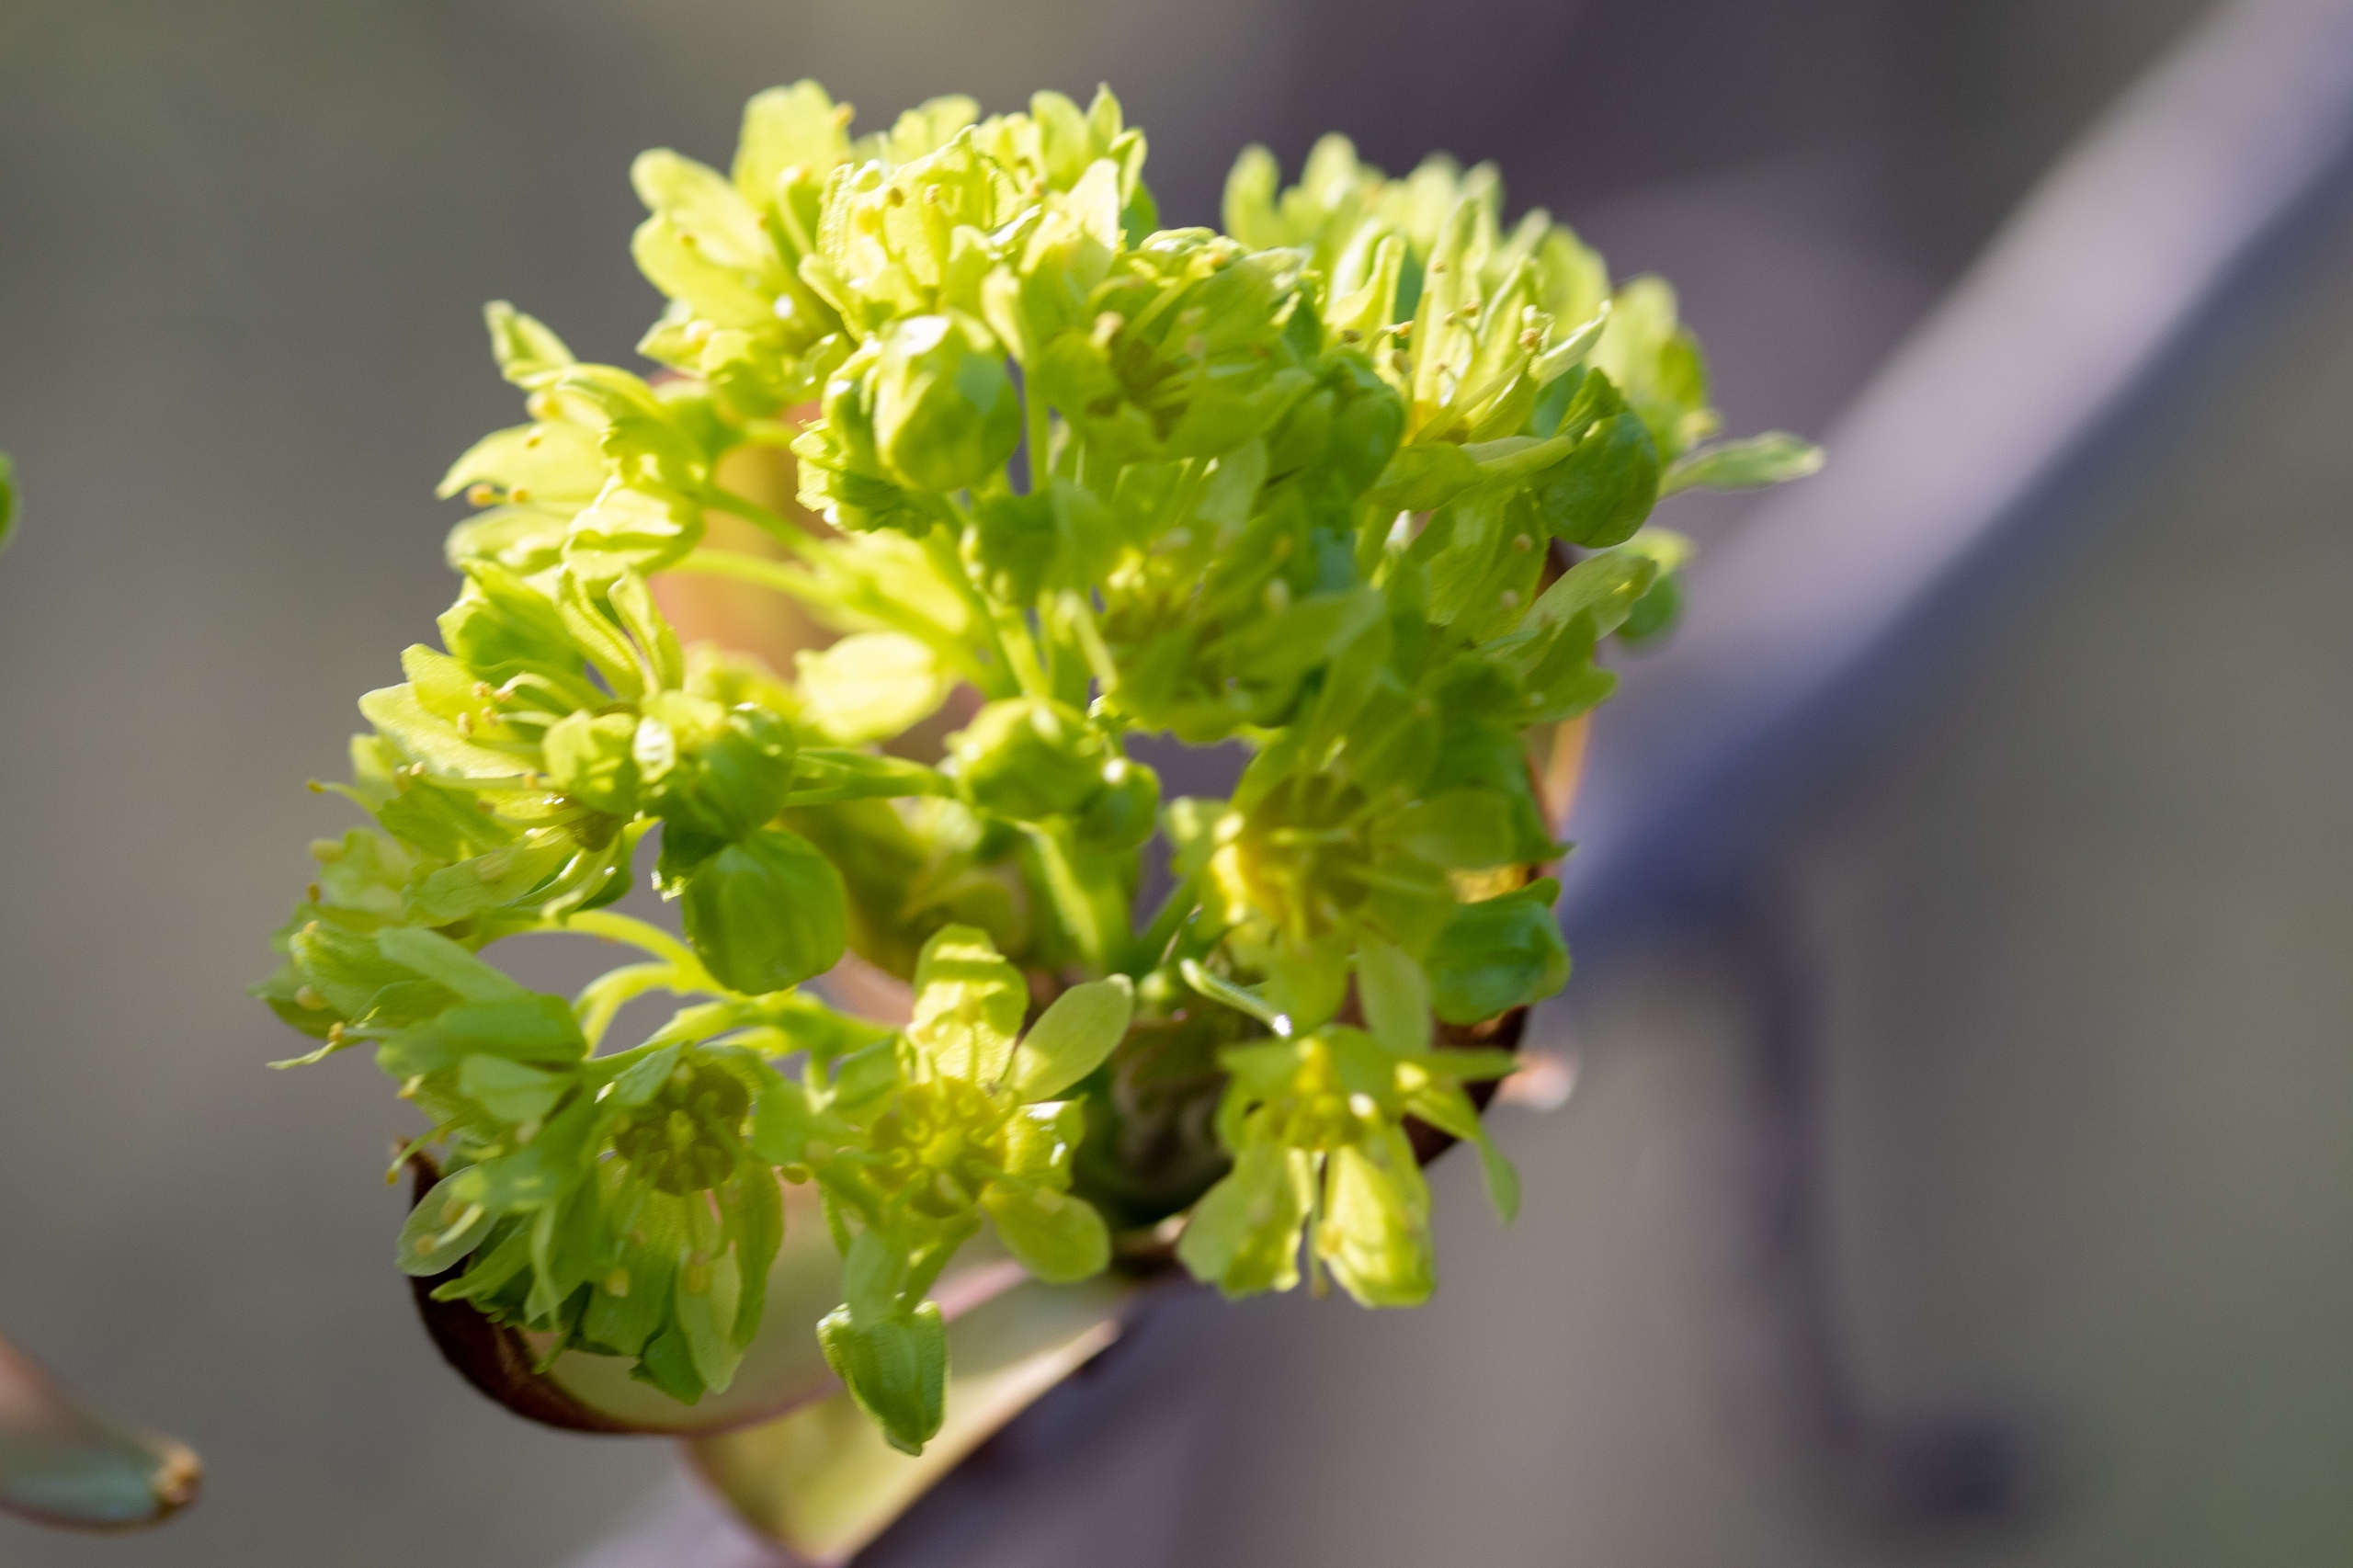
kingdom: Plantae
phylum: Tracheophyta
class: Magnoliopsida
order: Sapindales
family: Sapindaceae
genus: Acer
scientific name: Acer platanoides
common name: Spids-løn
